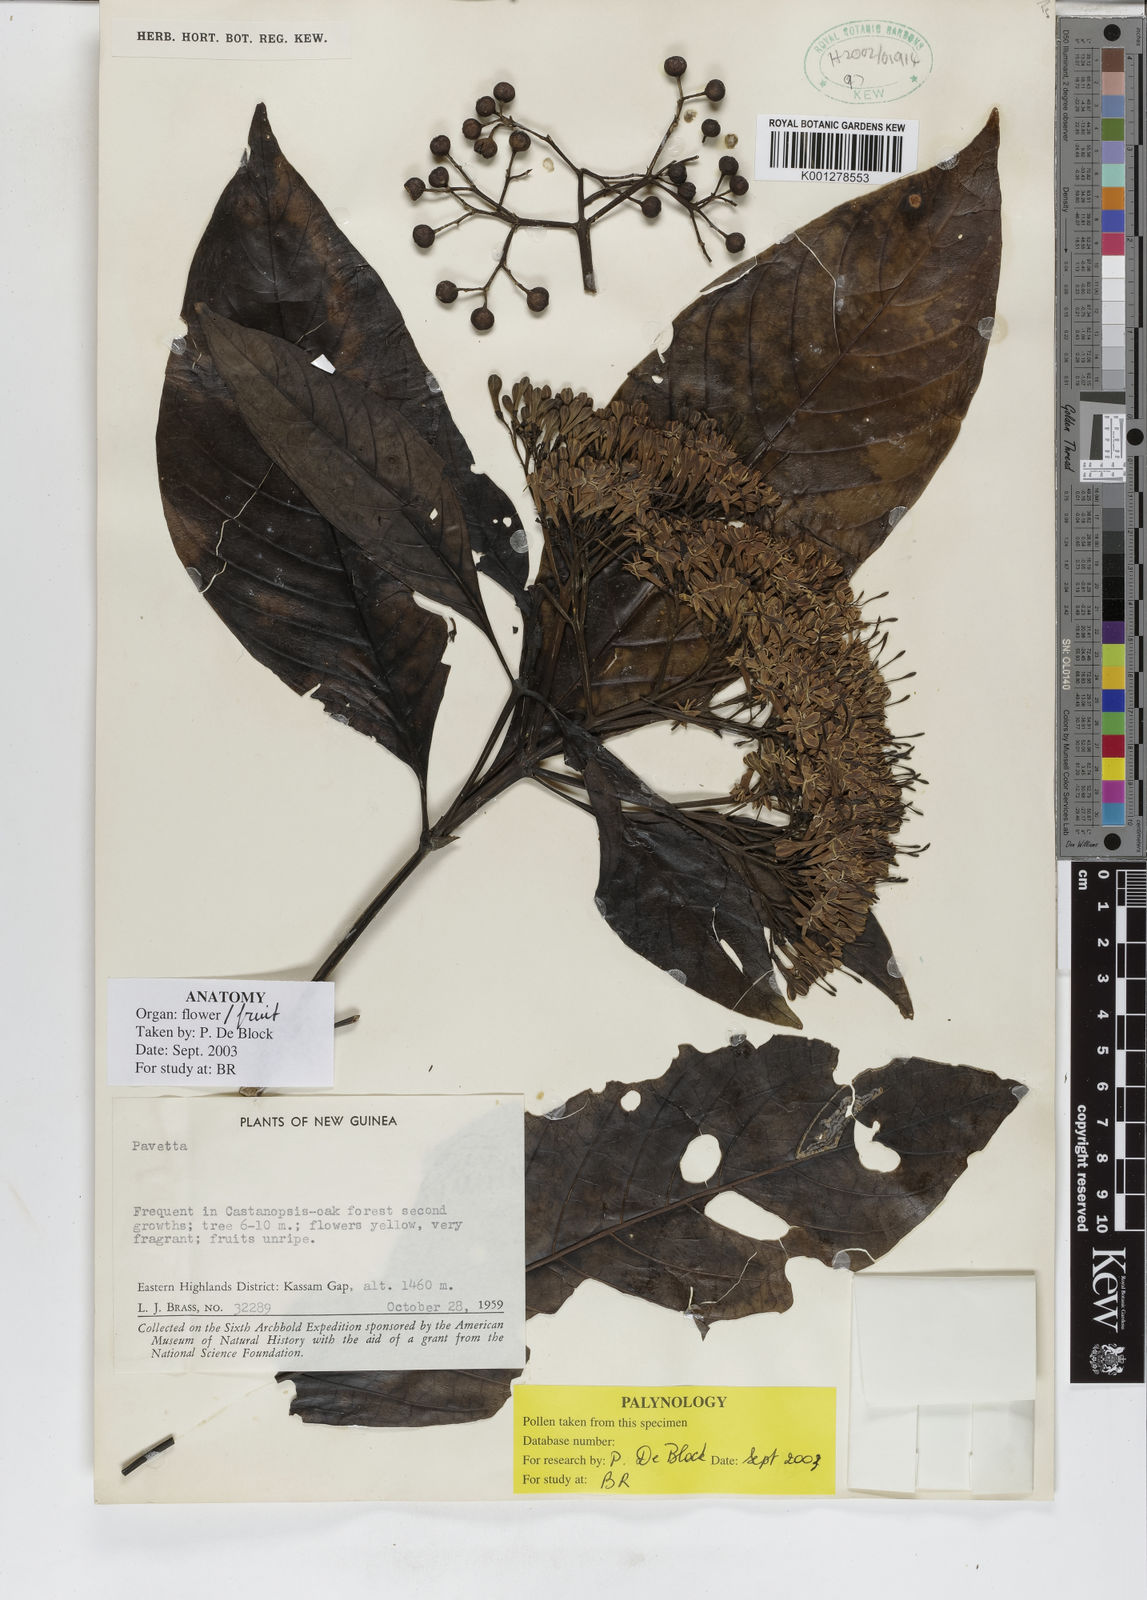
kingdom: Plantae
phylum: Tracheophyta
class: Magnoliopsida
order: Gentianales
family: Rubiaceae
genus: Tarenna
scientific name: Tarenna
